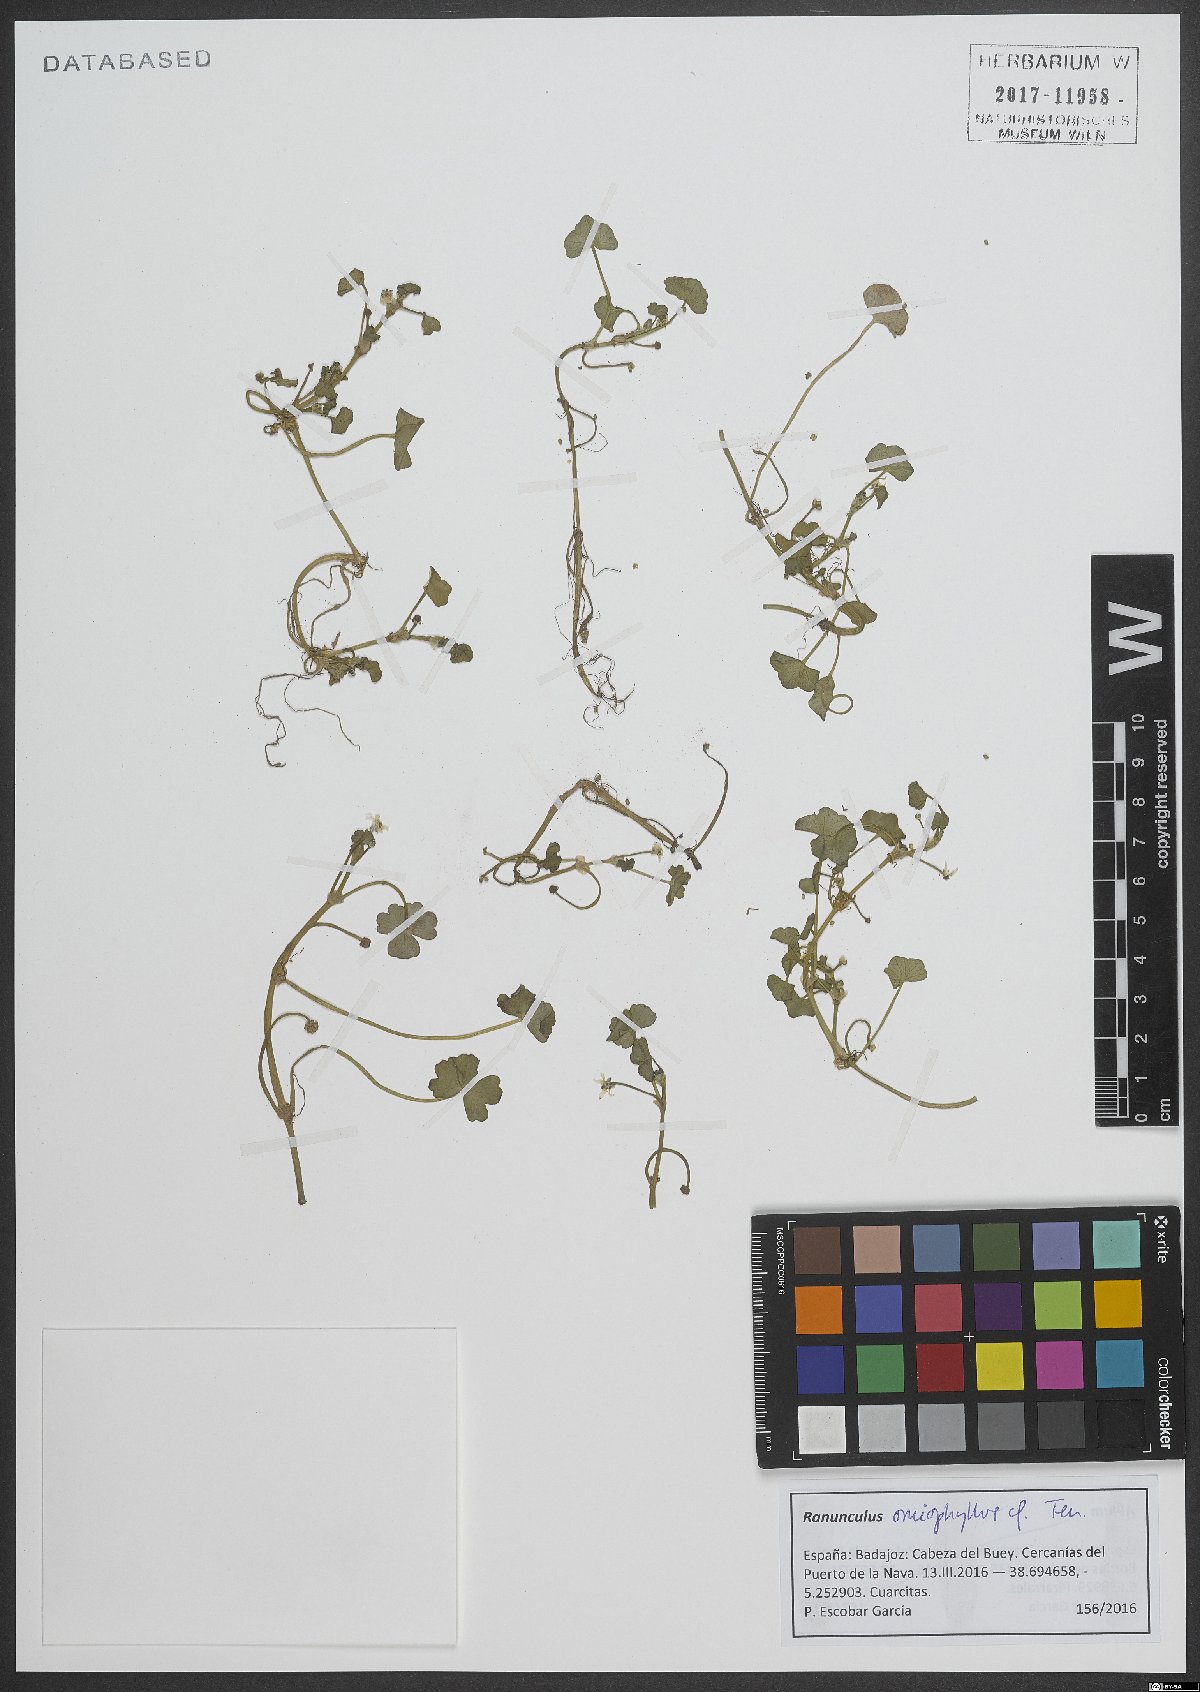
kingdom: Plantae
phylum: Tracheophyta
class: Magnoliopsida
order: Ranunculales
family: Ranunculaceae
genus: Ranunculus
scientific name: Ranunculus omiophyllus
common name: Round-leaved crowfoot
